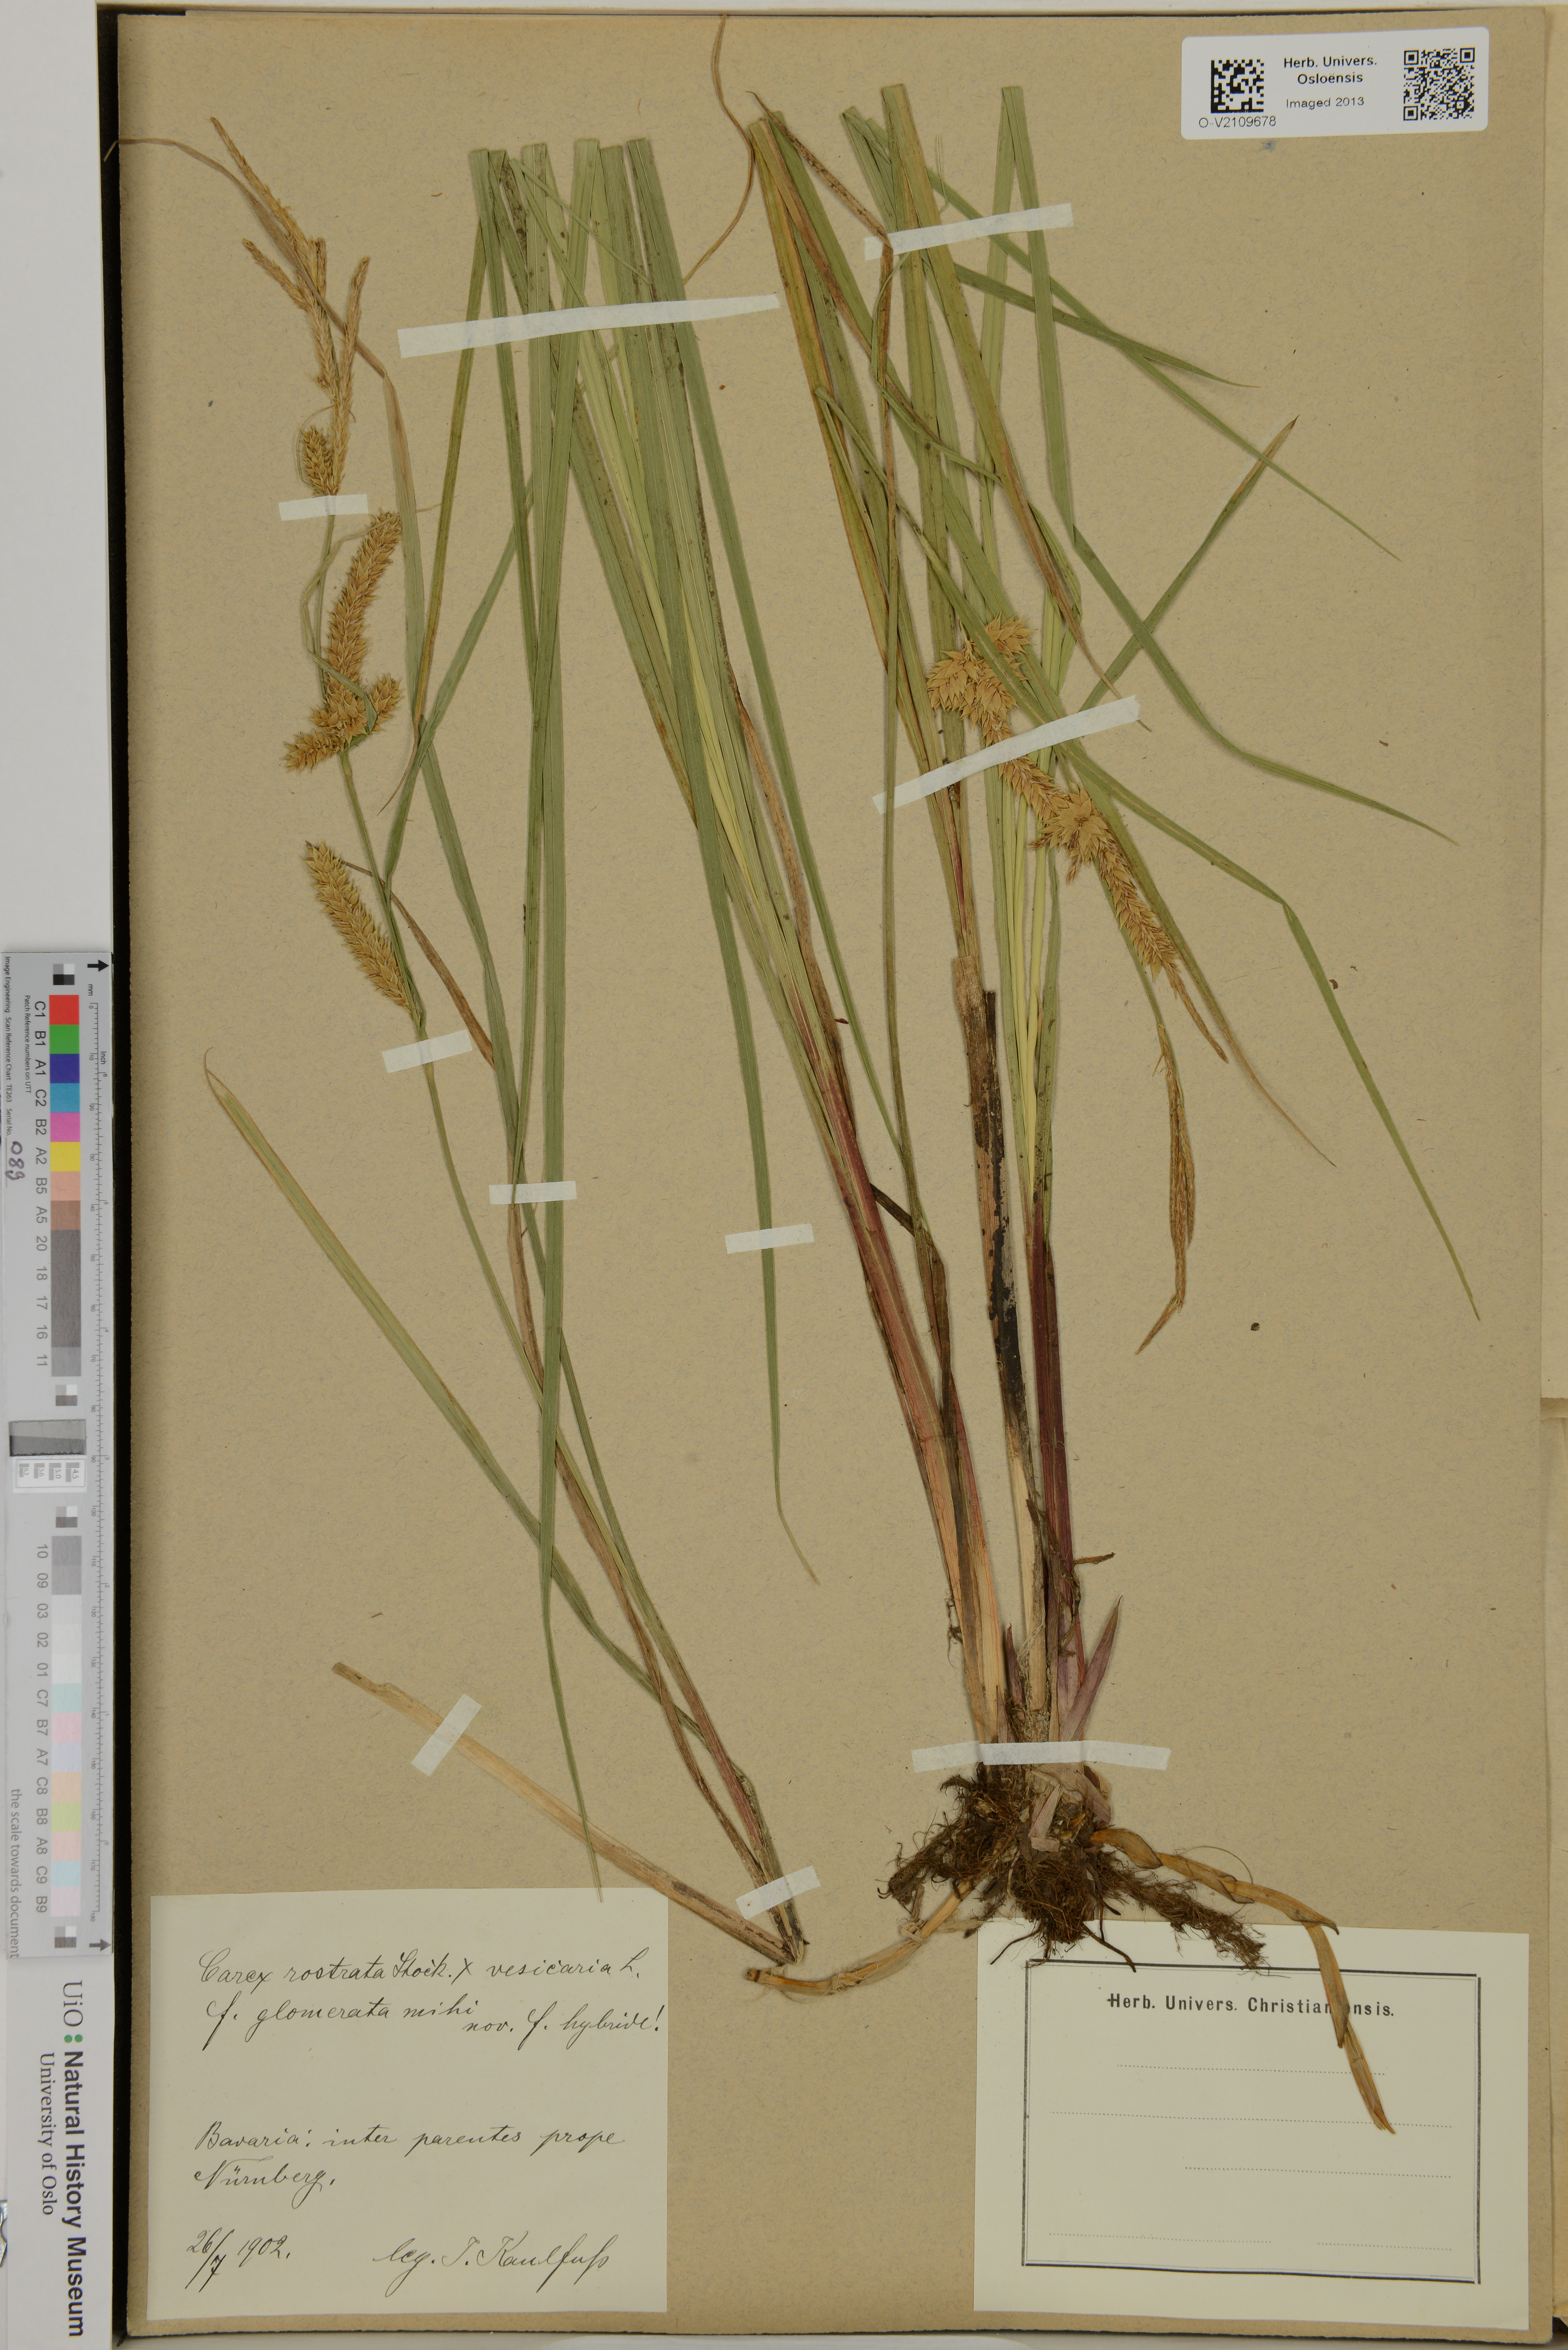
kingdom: Plantae
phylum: Tracheophyta
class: Liliopsida
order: Poales
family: Cyperaceae
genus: Carex
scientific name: Carex rostrata
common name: Bottle sedge
